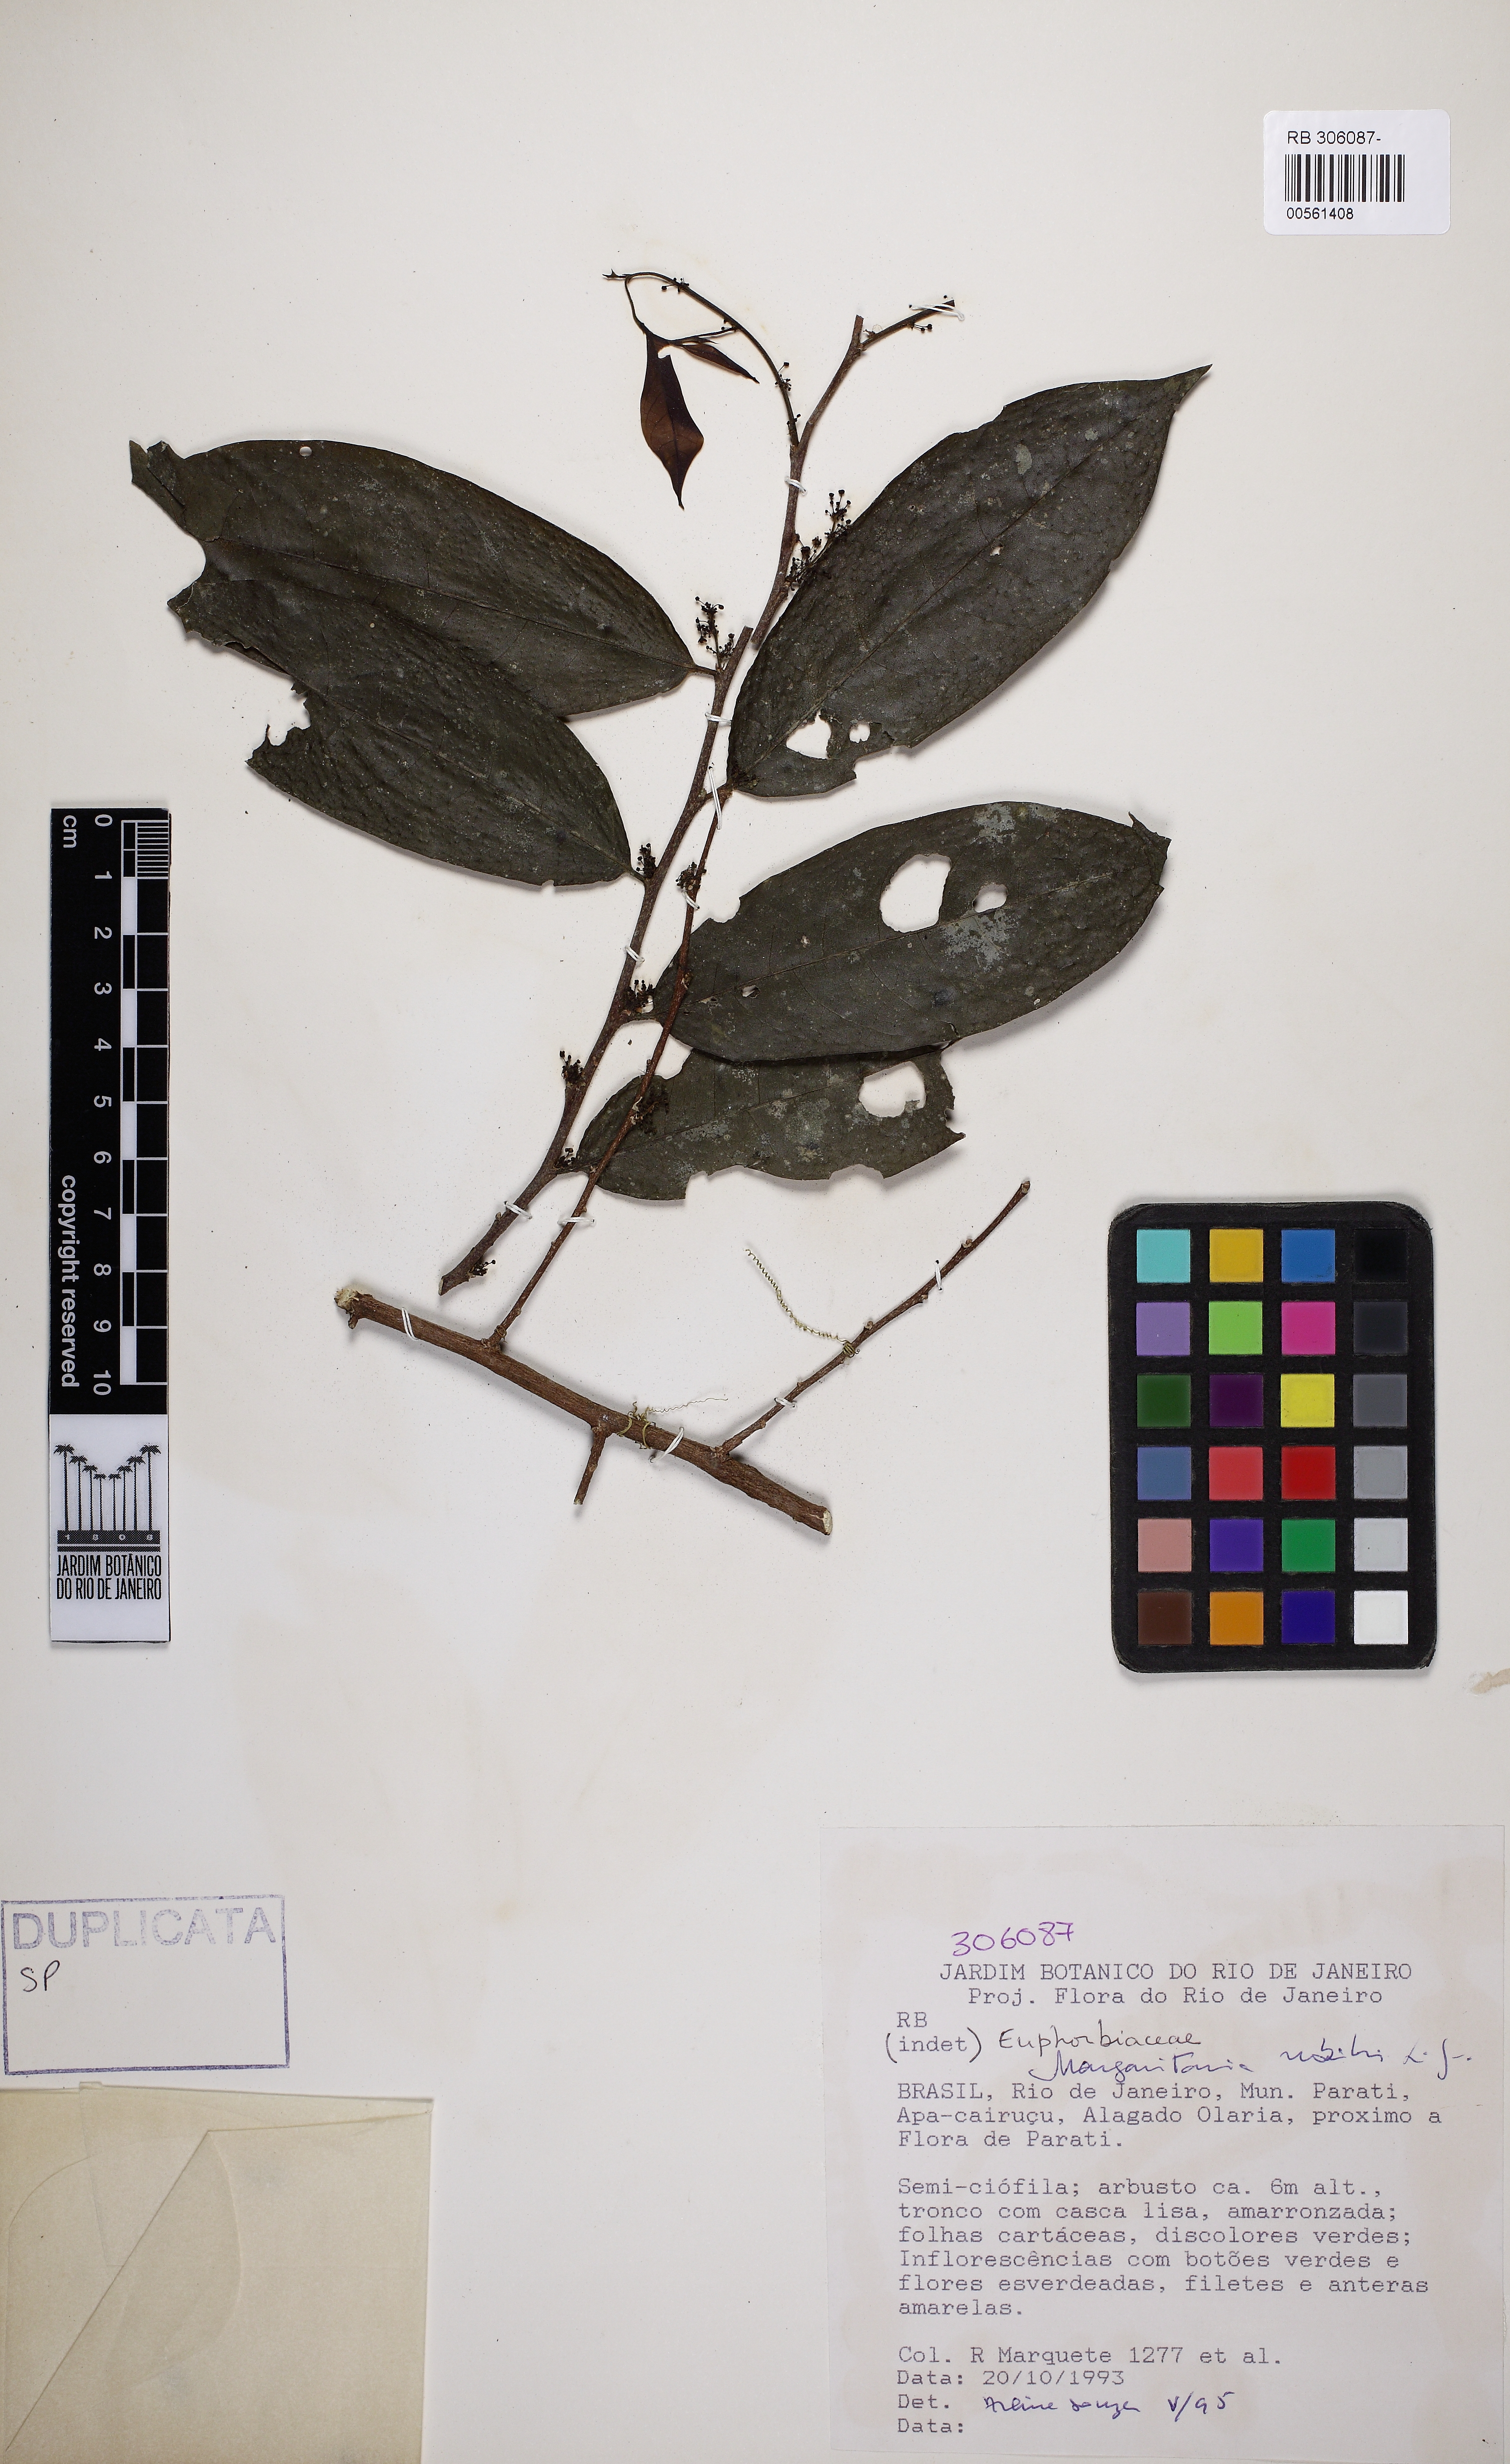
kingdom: Plantae
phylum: Tracheophyta
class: Magnoliopsida
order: Malpighiales
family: Phyllanthaceae
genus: Margaritaria
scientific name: Margaritaria nobilis
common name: Goose berry
